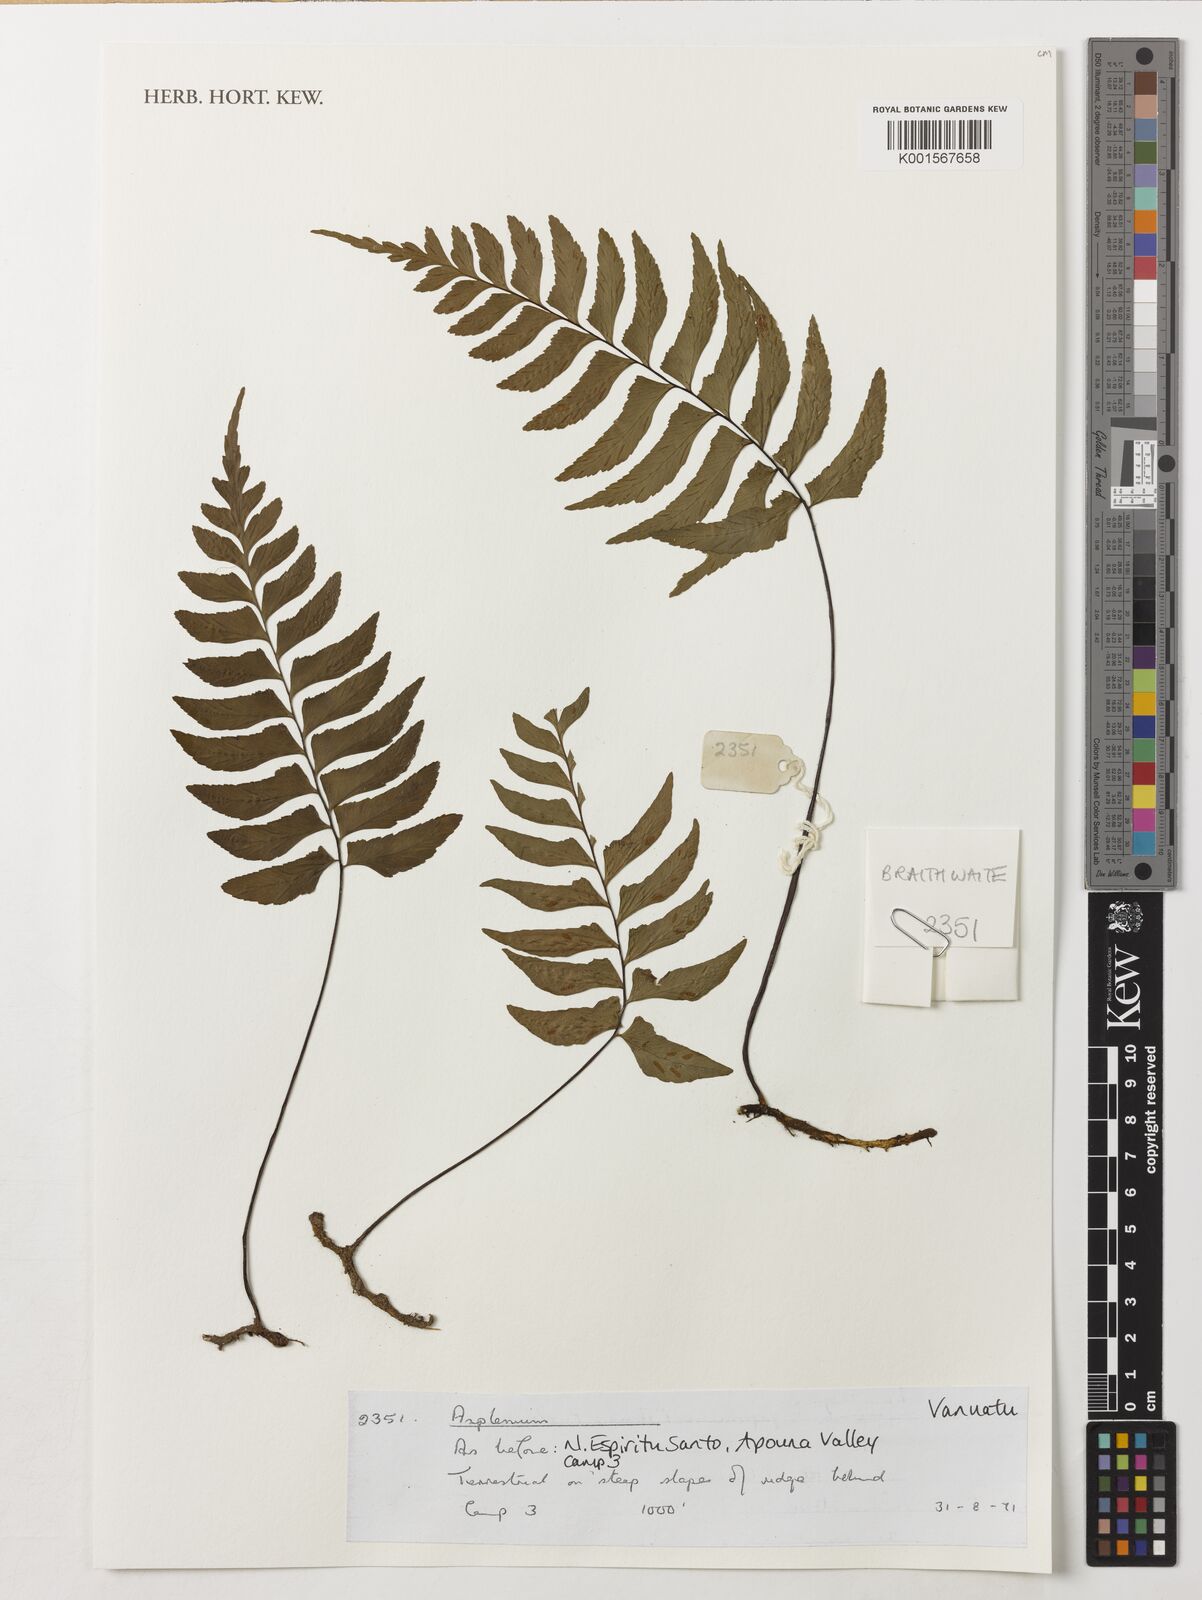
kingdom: Plantae
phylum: Tracheophyta
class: Polypodiopsida
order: Polypodiales
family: Aspleniaceae
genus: Asplenium
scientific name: Asplenium
